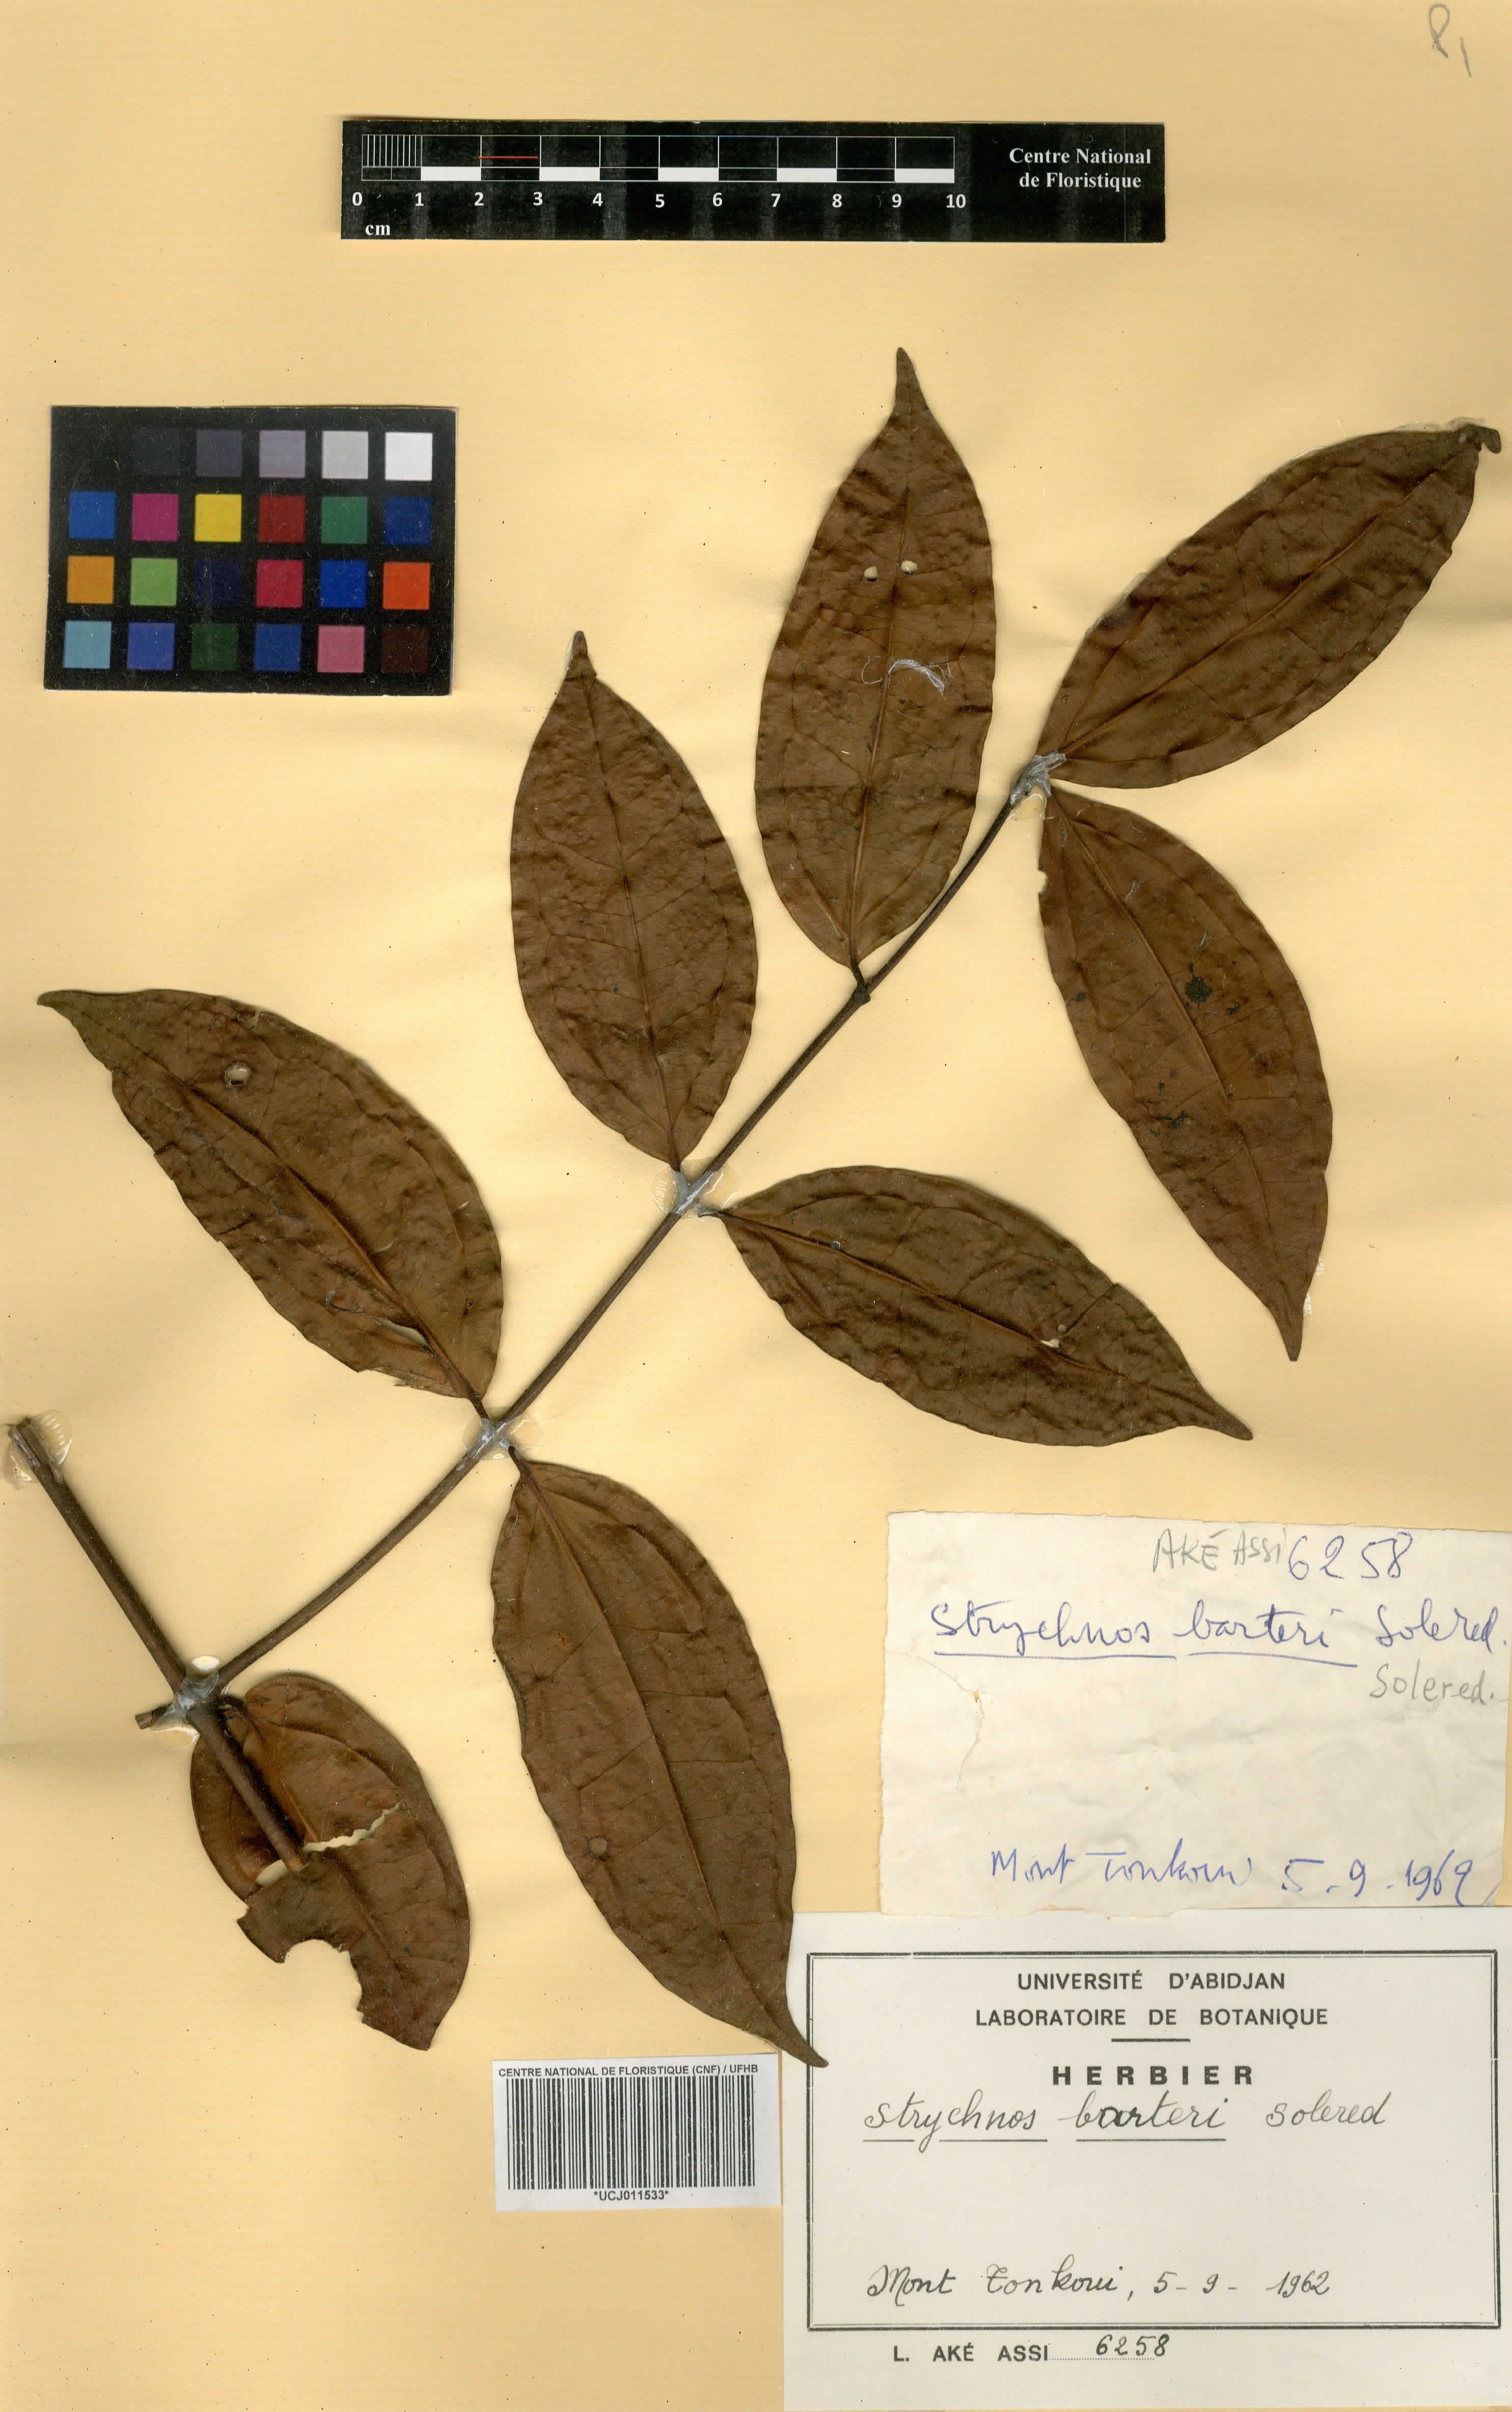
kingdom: Plantae
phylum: Tracheophyta
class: Magnoliopsida
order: Gentianales
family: Loganiaceae
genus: Strychnos
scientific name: Strychnos barteri
